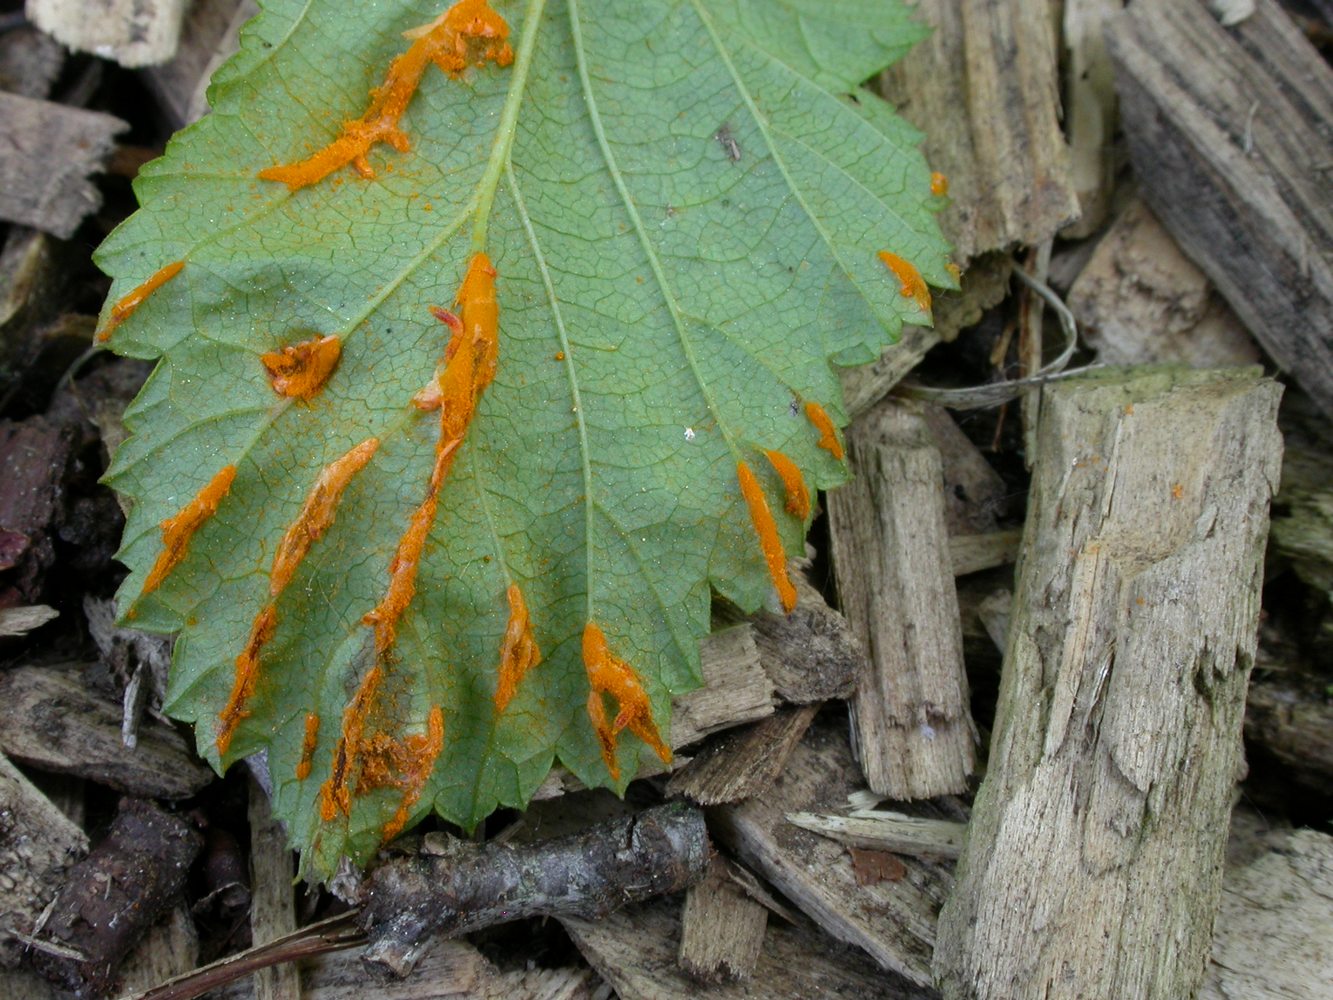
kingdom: Fungi
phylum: Basidiomycota
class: Pucciniomycetes
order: Pucciniales
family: Raveneliaceae
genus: Triphragmium
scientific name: Triphragmium ulmariae
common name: almindelig mjødurtrust
